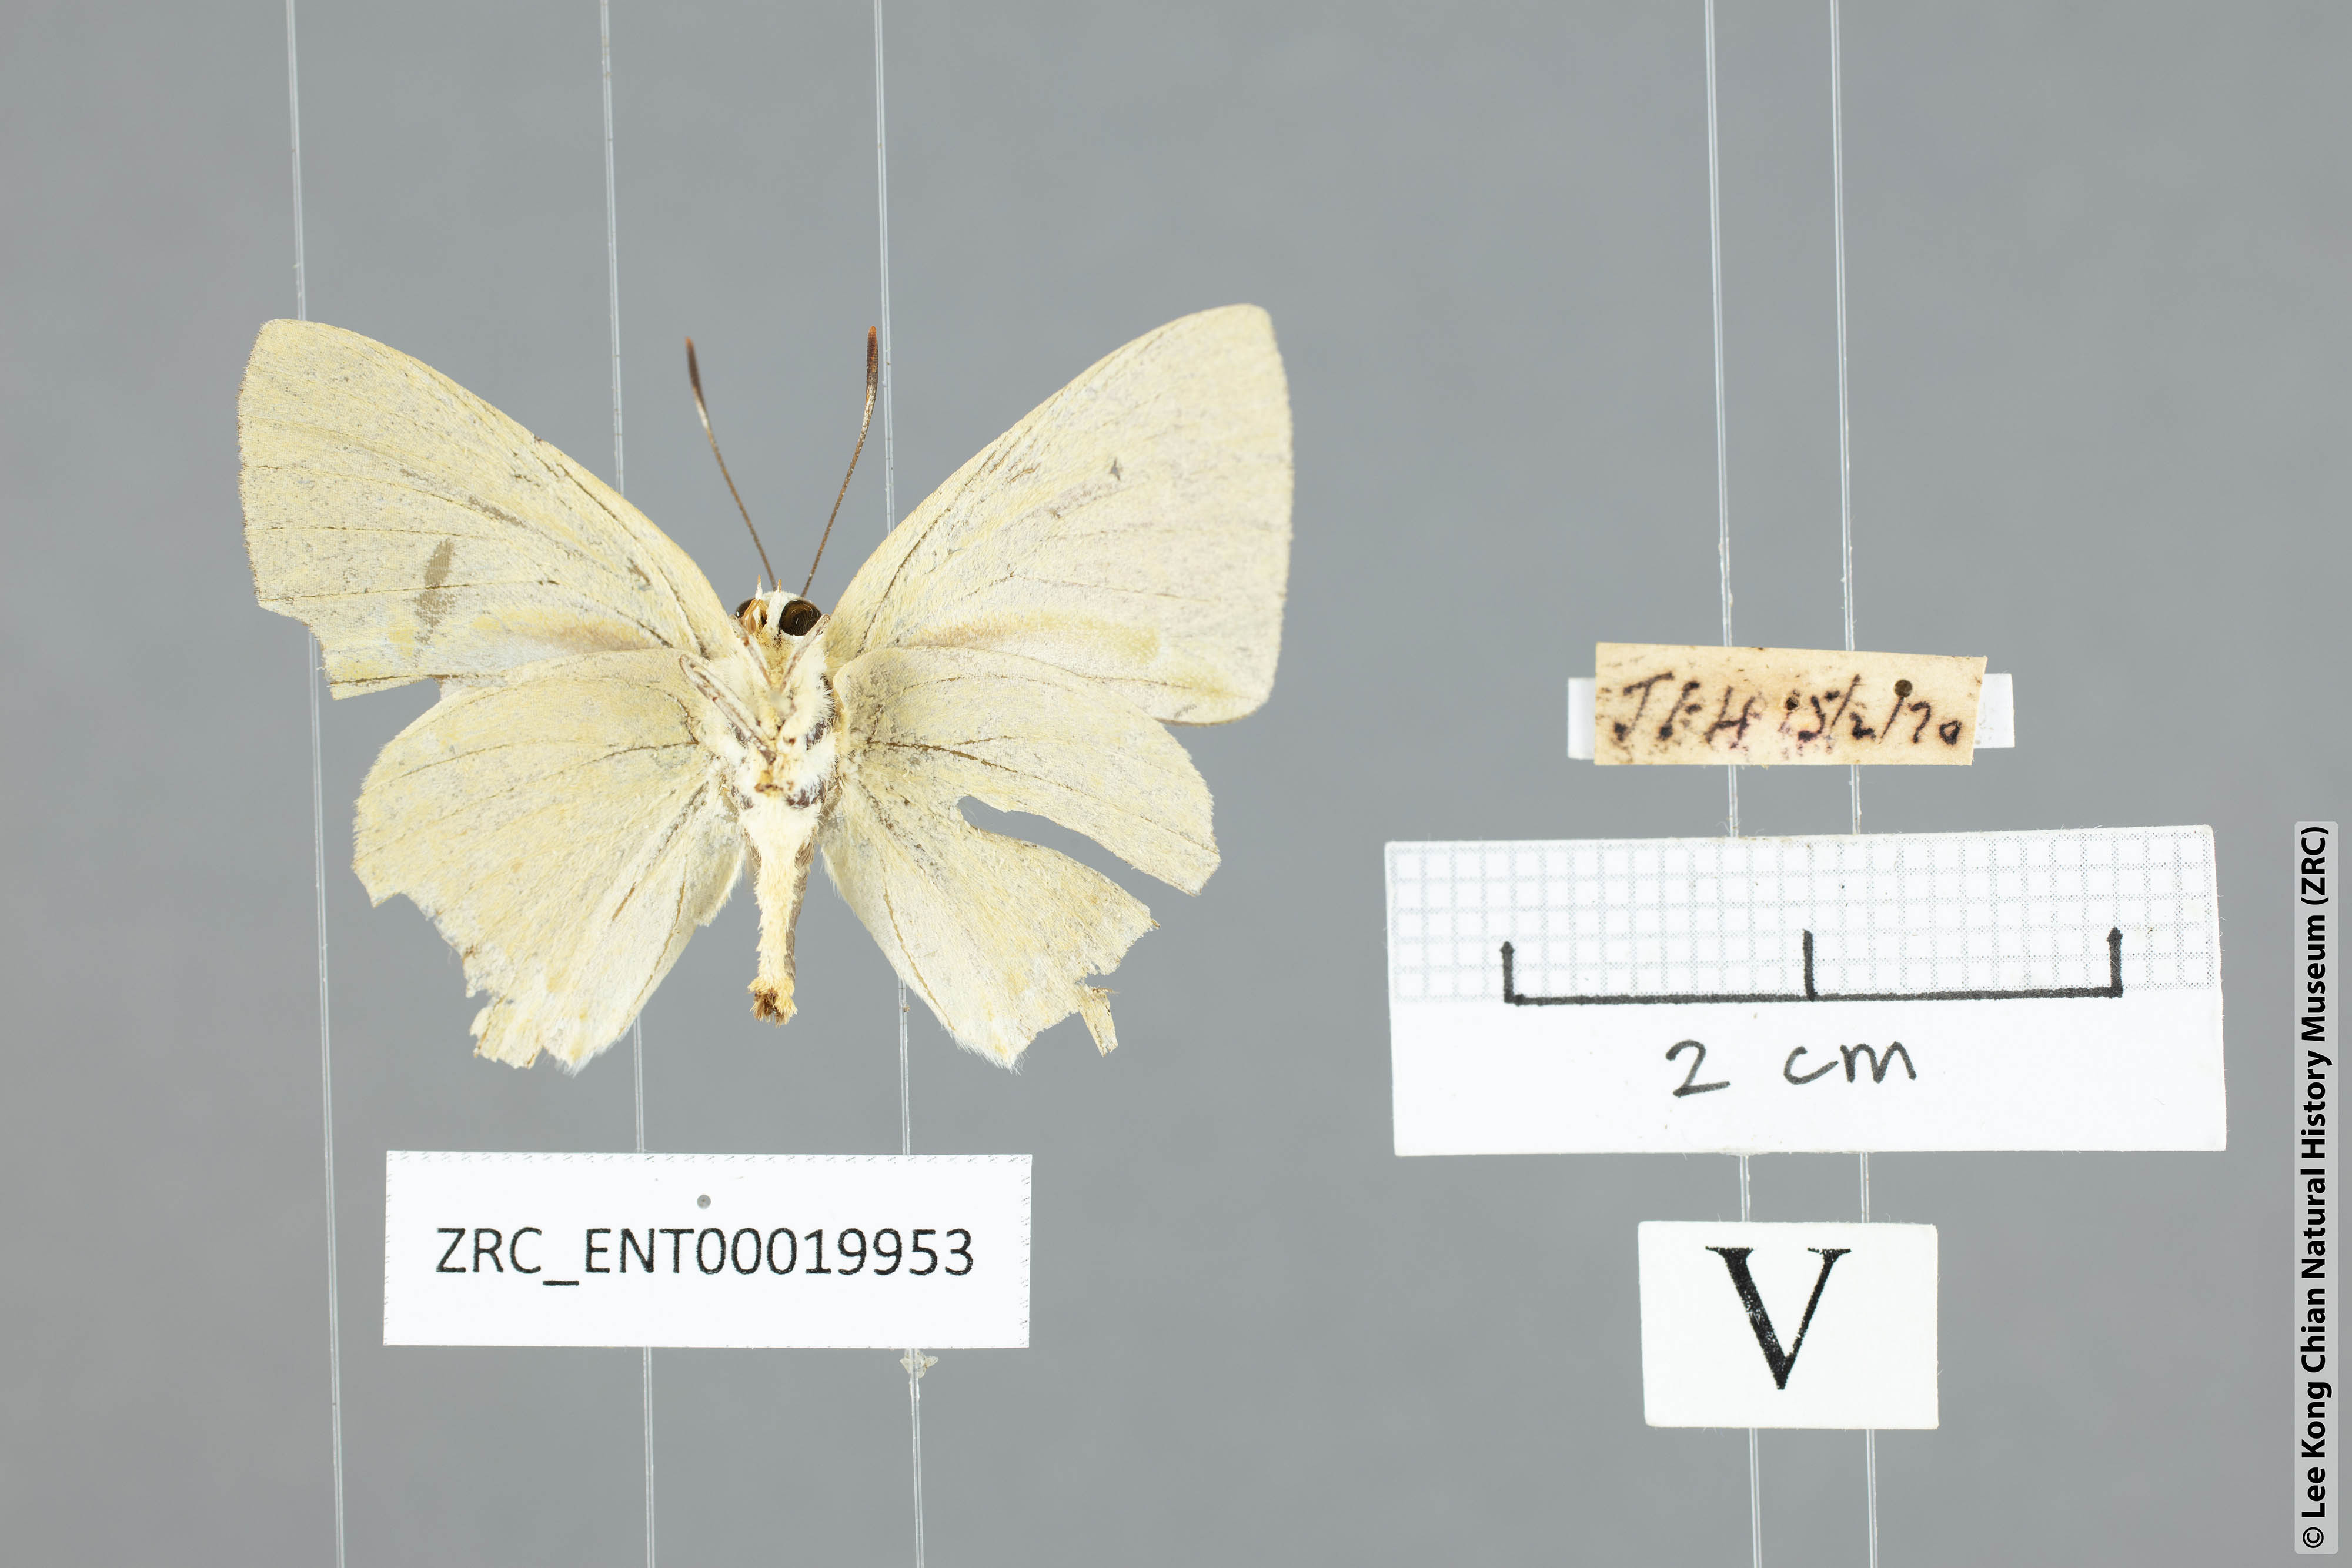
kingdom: Animalia
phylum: Arthropoda
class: Insecta
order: Lepidoptera
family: Lycaenidae
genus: Artipe
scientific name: Artipe eryx
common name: Green flash
